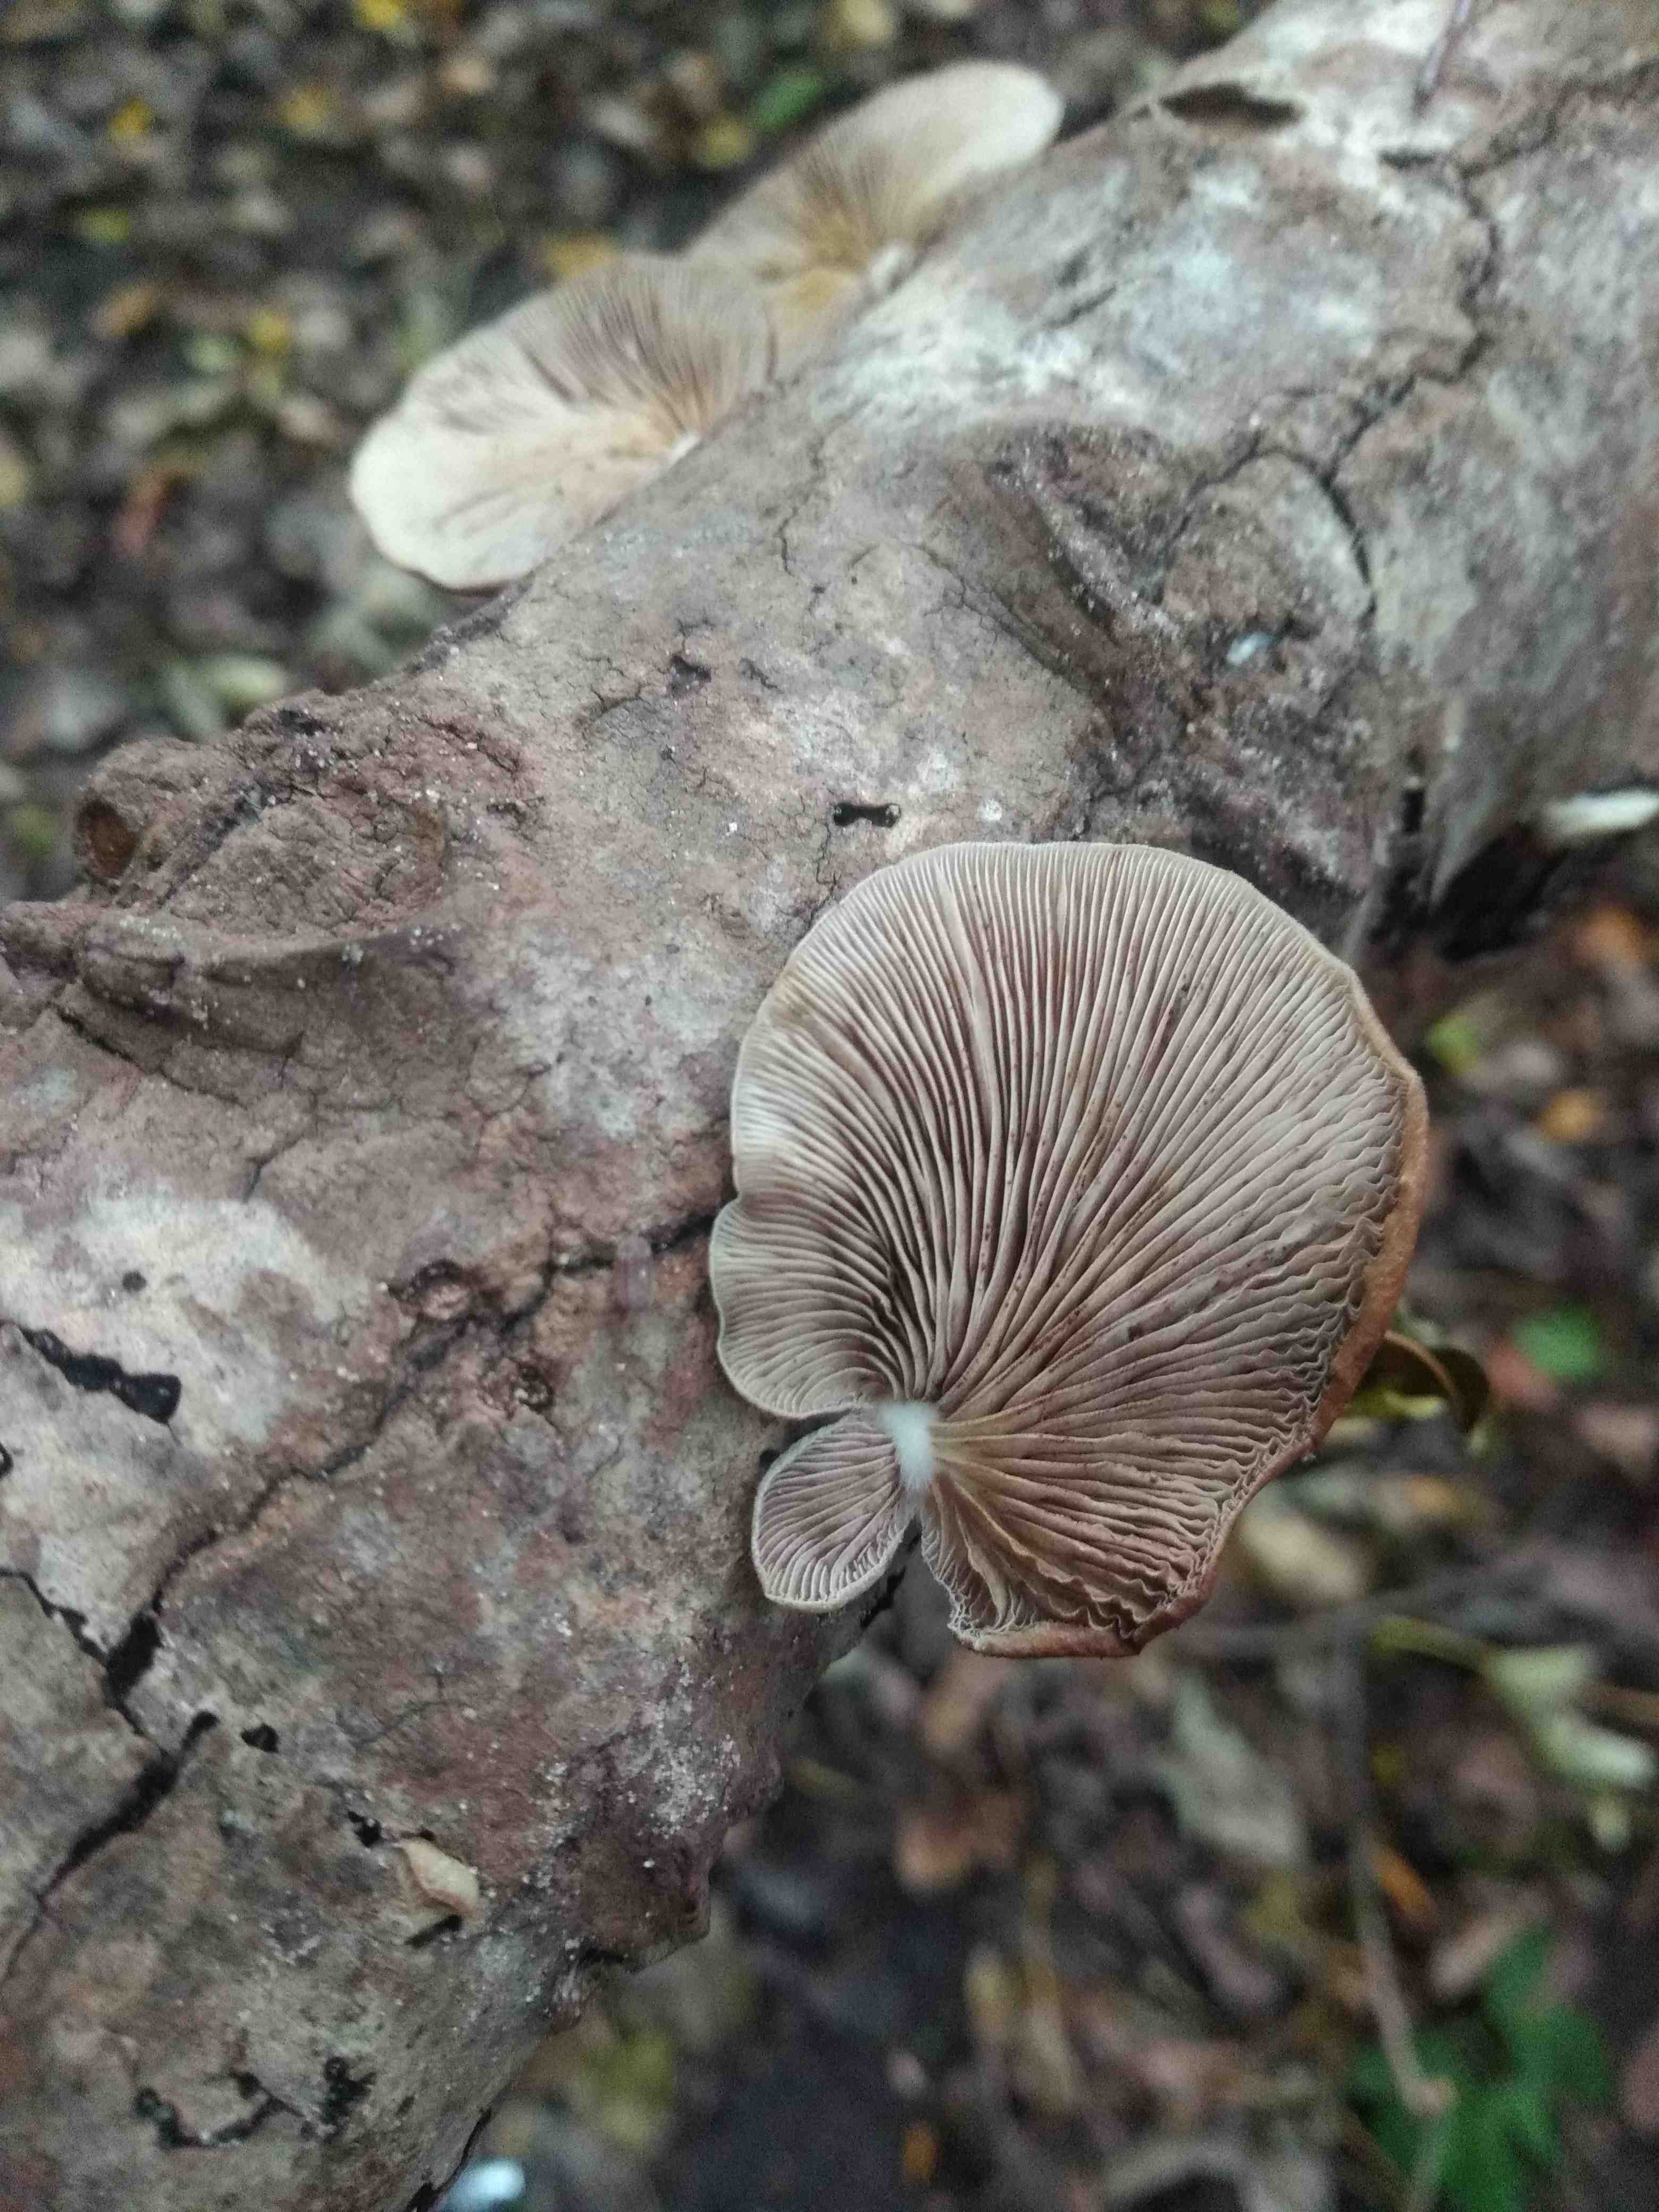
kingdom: Fungi
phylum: Basidiomycota
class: Agaricomycetes
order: Agaricales
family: Crepidotaceae
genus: Crepidotus
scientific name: Crepidotus
